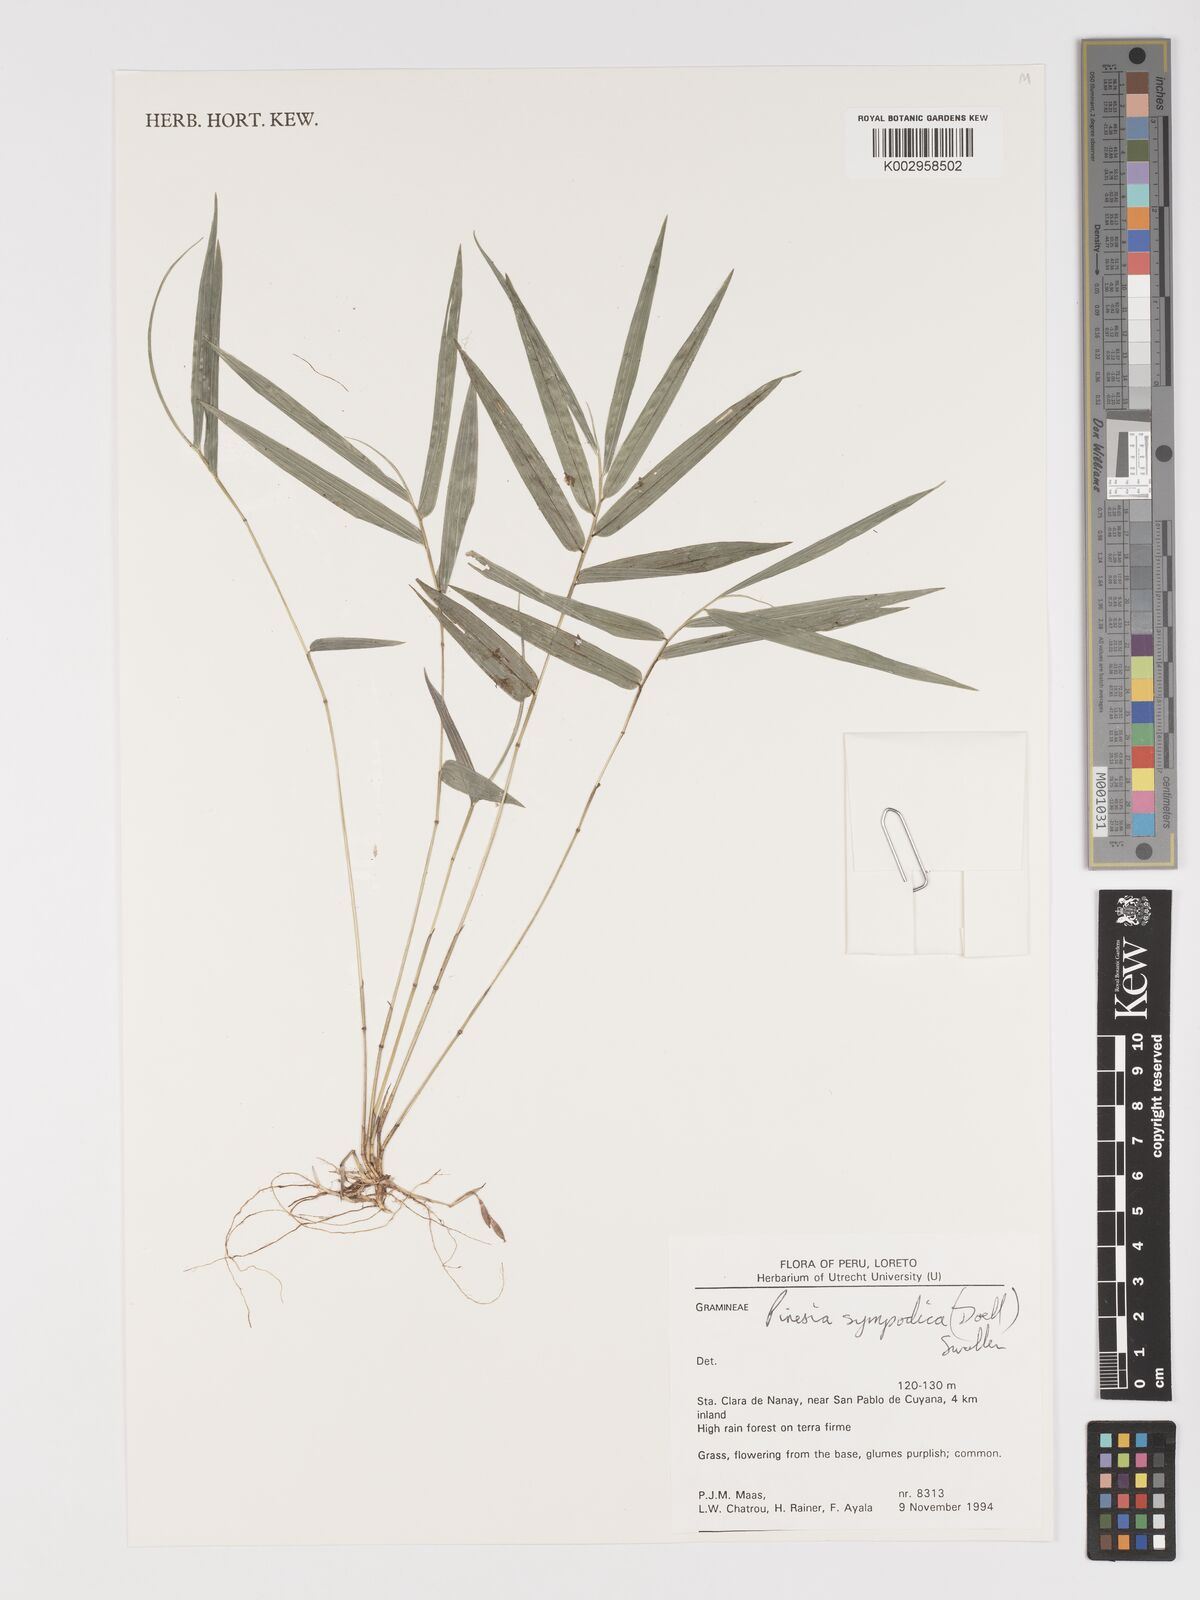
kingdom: Plantae
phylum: Tracheophyta
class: Liliopsida
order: Poales
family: Poaceae
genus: Piresia
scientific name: Piresia
